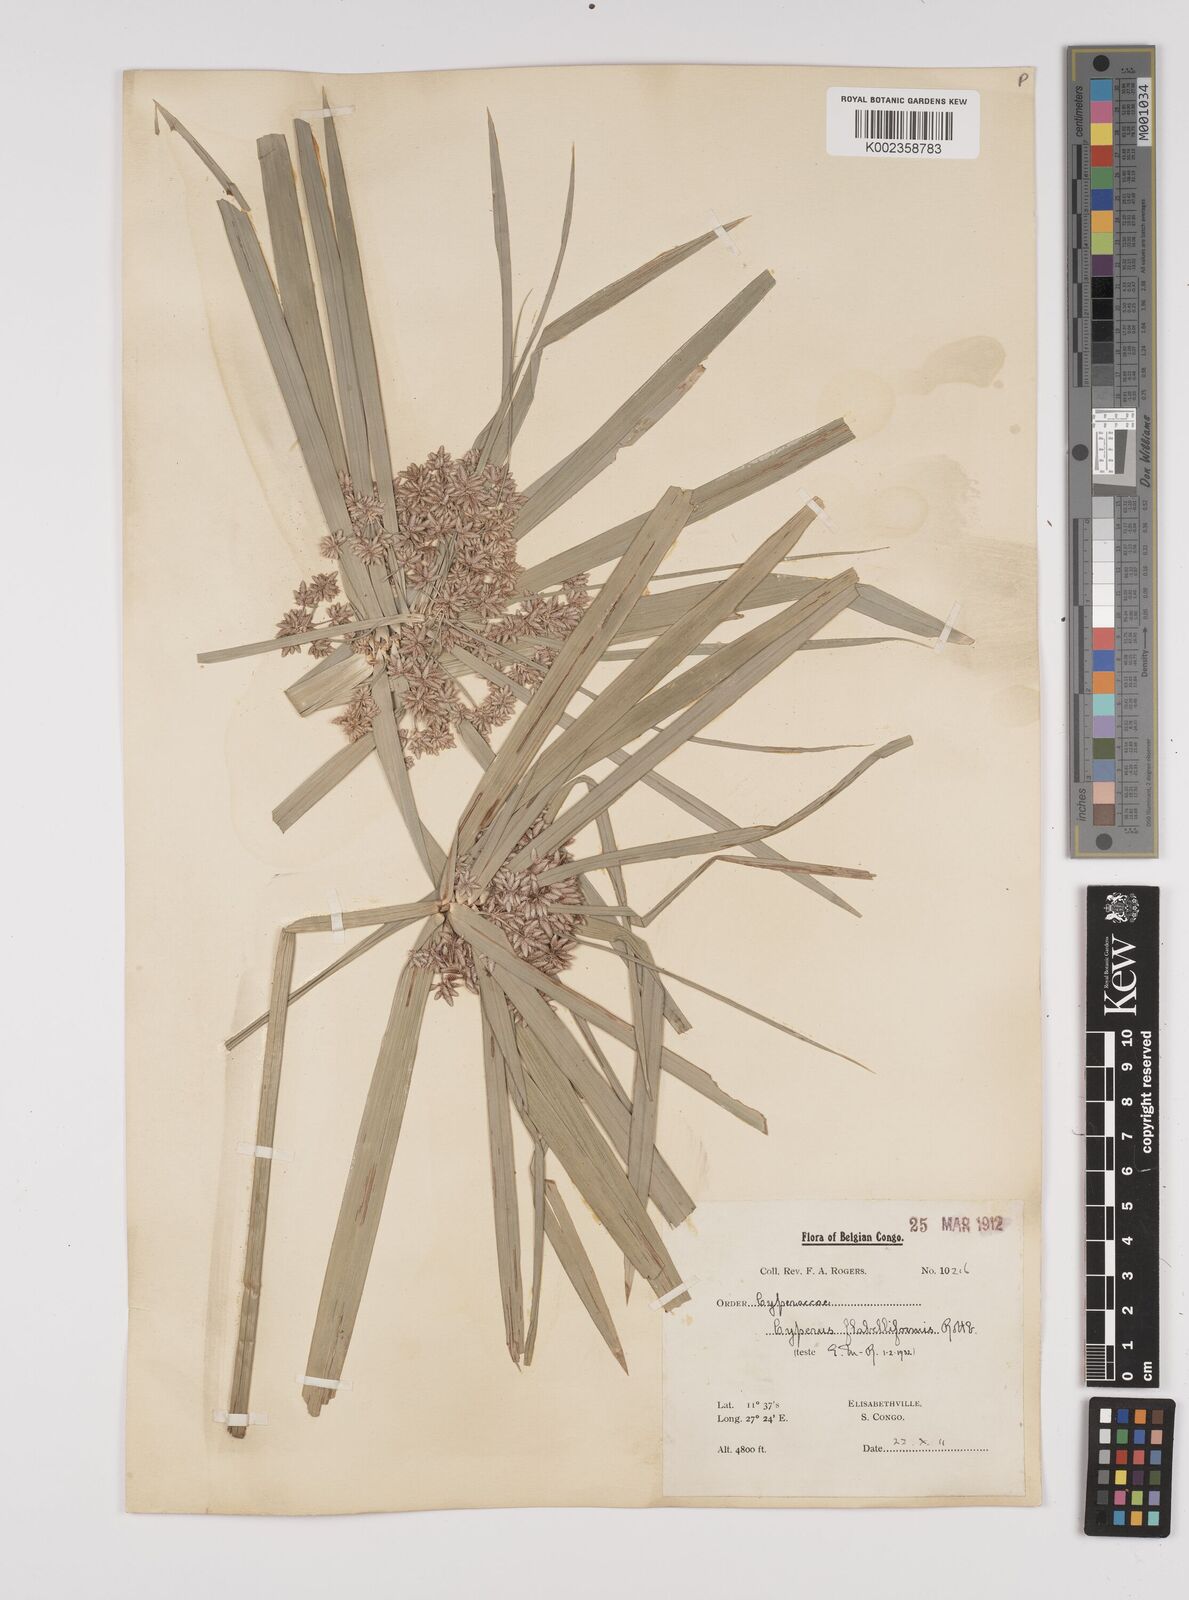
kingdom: Plantae
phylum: Tracheophyta
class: Liliopsida
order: Poales
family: Cyperaceae
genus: Cyperus
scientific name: Cyperus alternifolius
